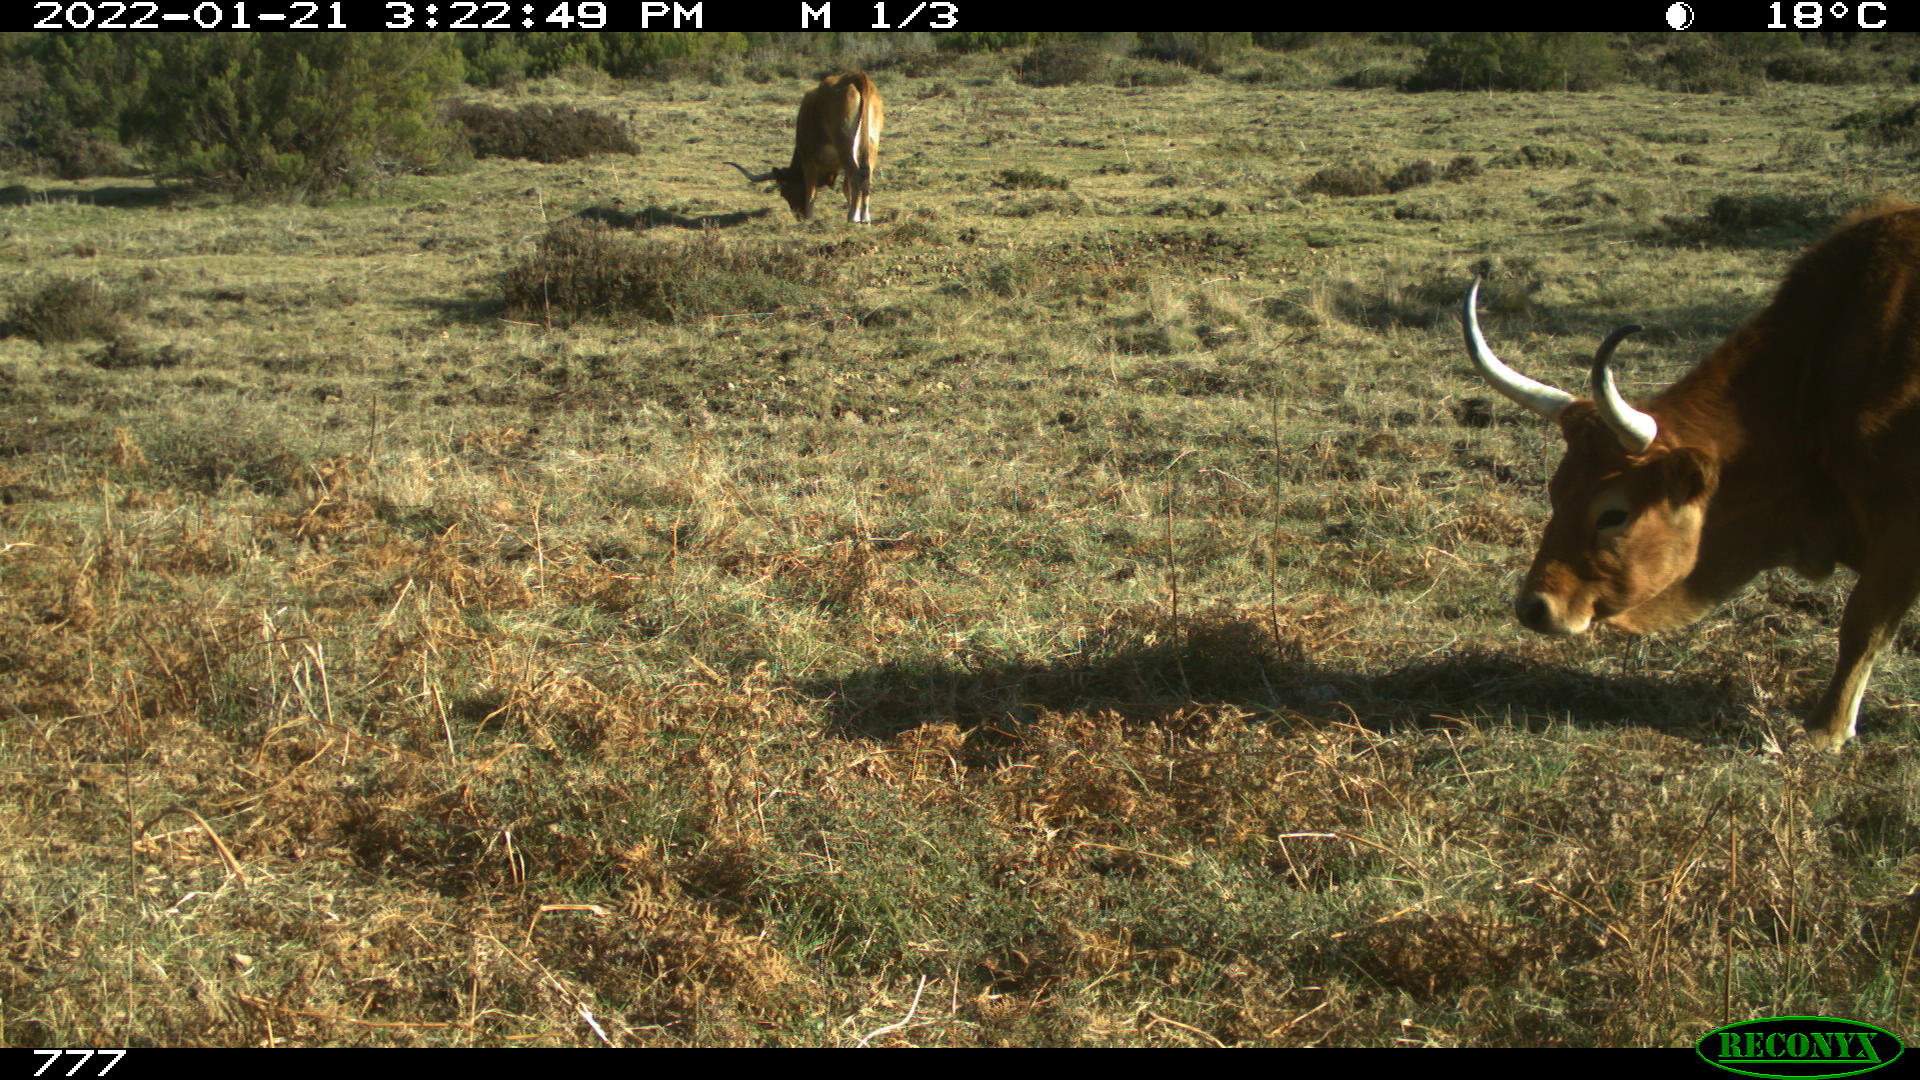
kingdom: Animalia
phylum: Chordata
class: Mammalia
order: Artiodactyla
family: Bovidae
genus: Bos
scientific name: Bos taurus
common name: Domesticated cattle
